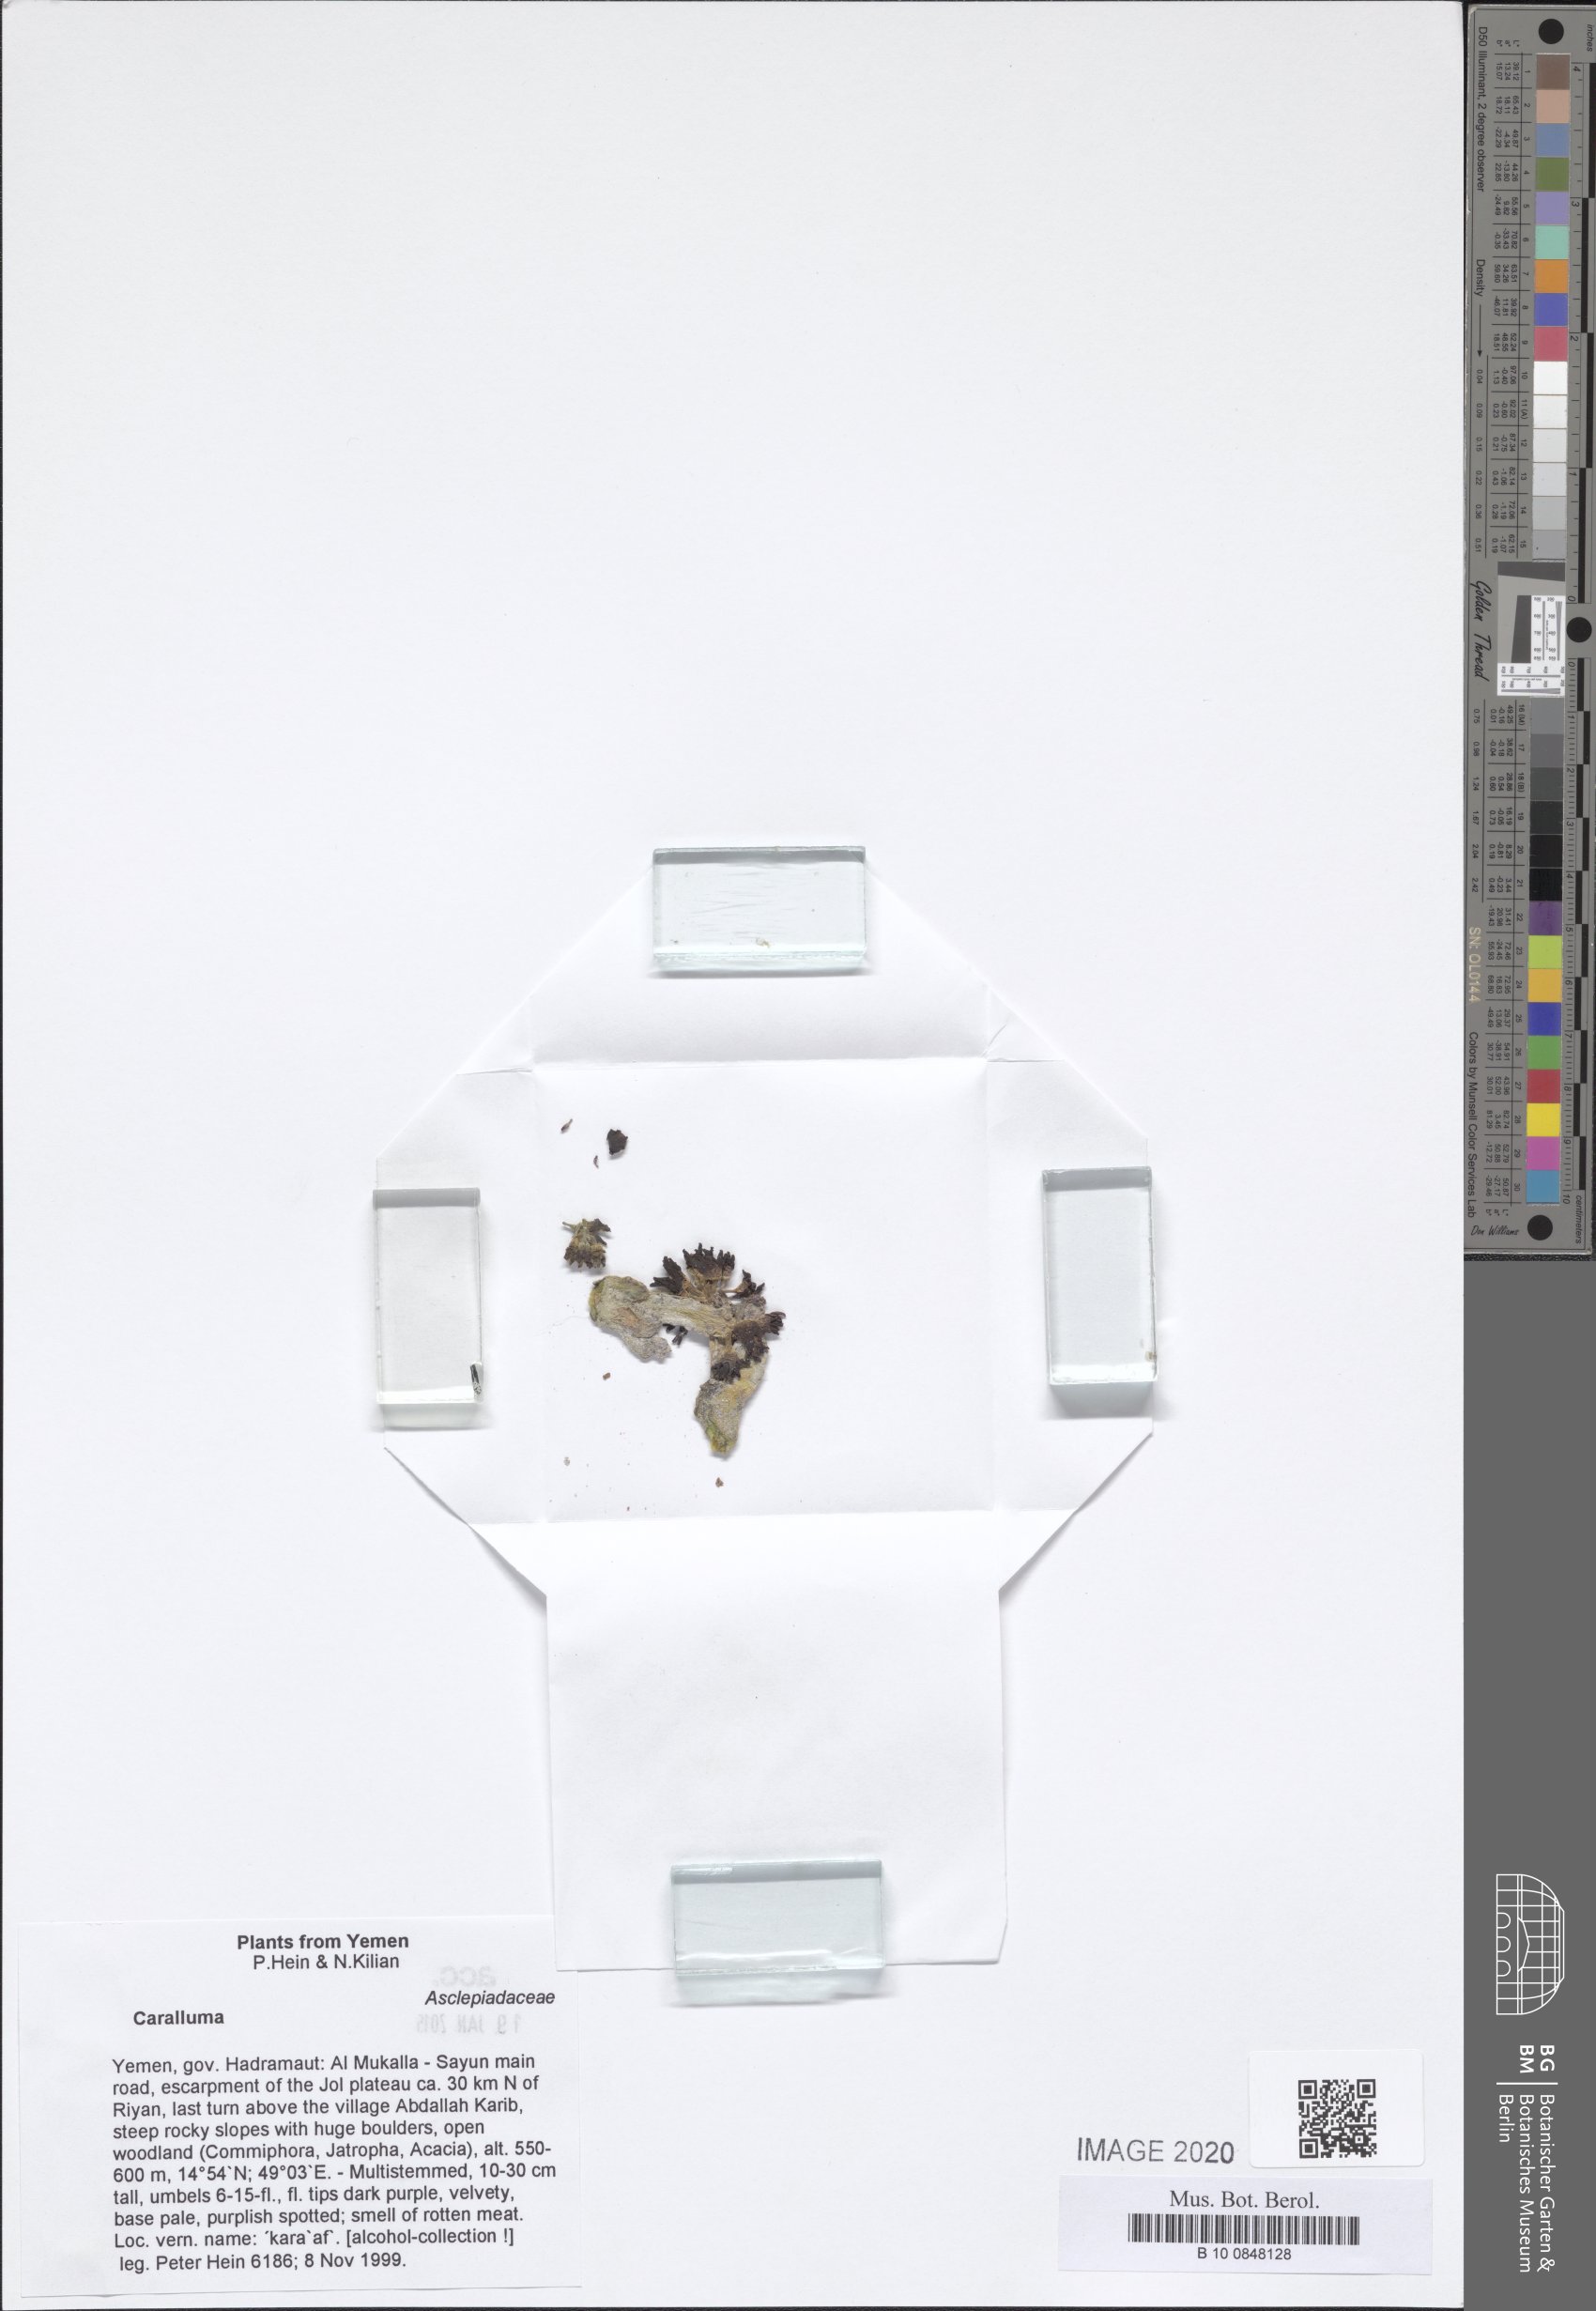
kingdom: Plantae
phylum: Tracheophyta
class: Magnoliopsida
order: Gentianales
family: Apocynaceae
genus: Ceropegia
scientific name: Ceropegia awdeliana
